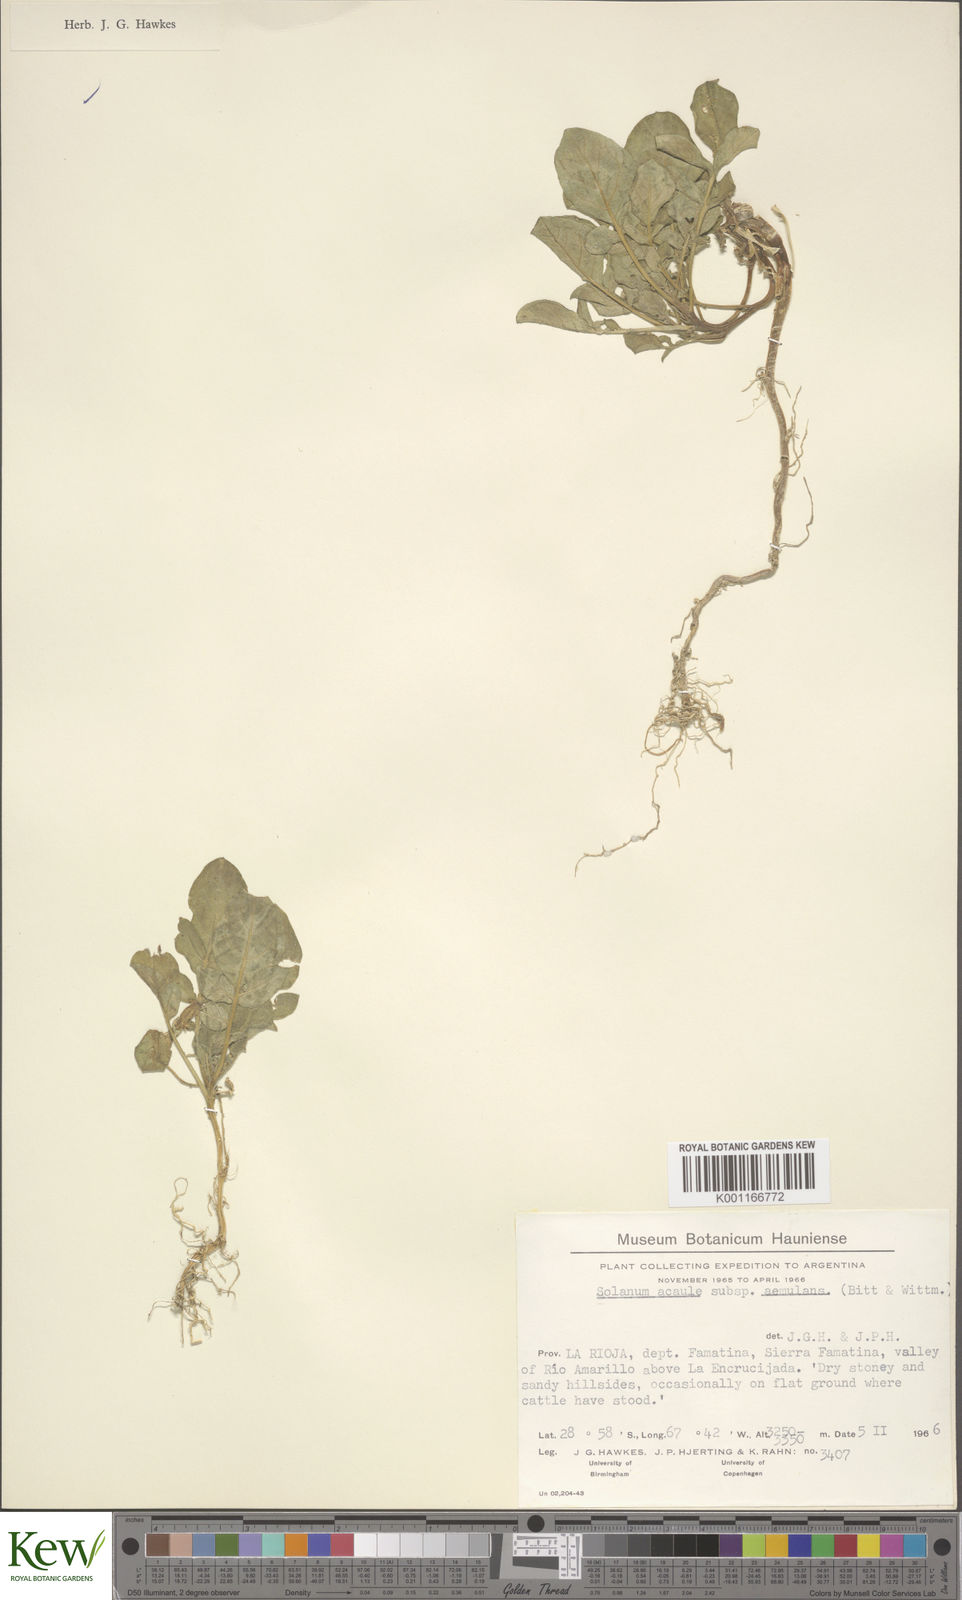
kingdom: Plantae
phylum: Tracheophyta
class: Magnoliopsida
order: Solanales
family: Solanaceae
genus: Solanum
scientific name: Solanum aemulans
